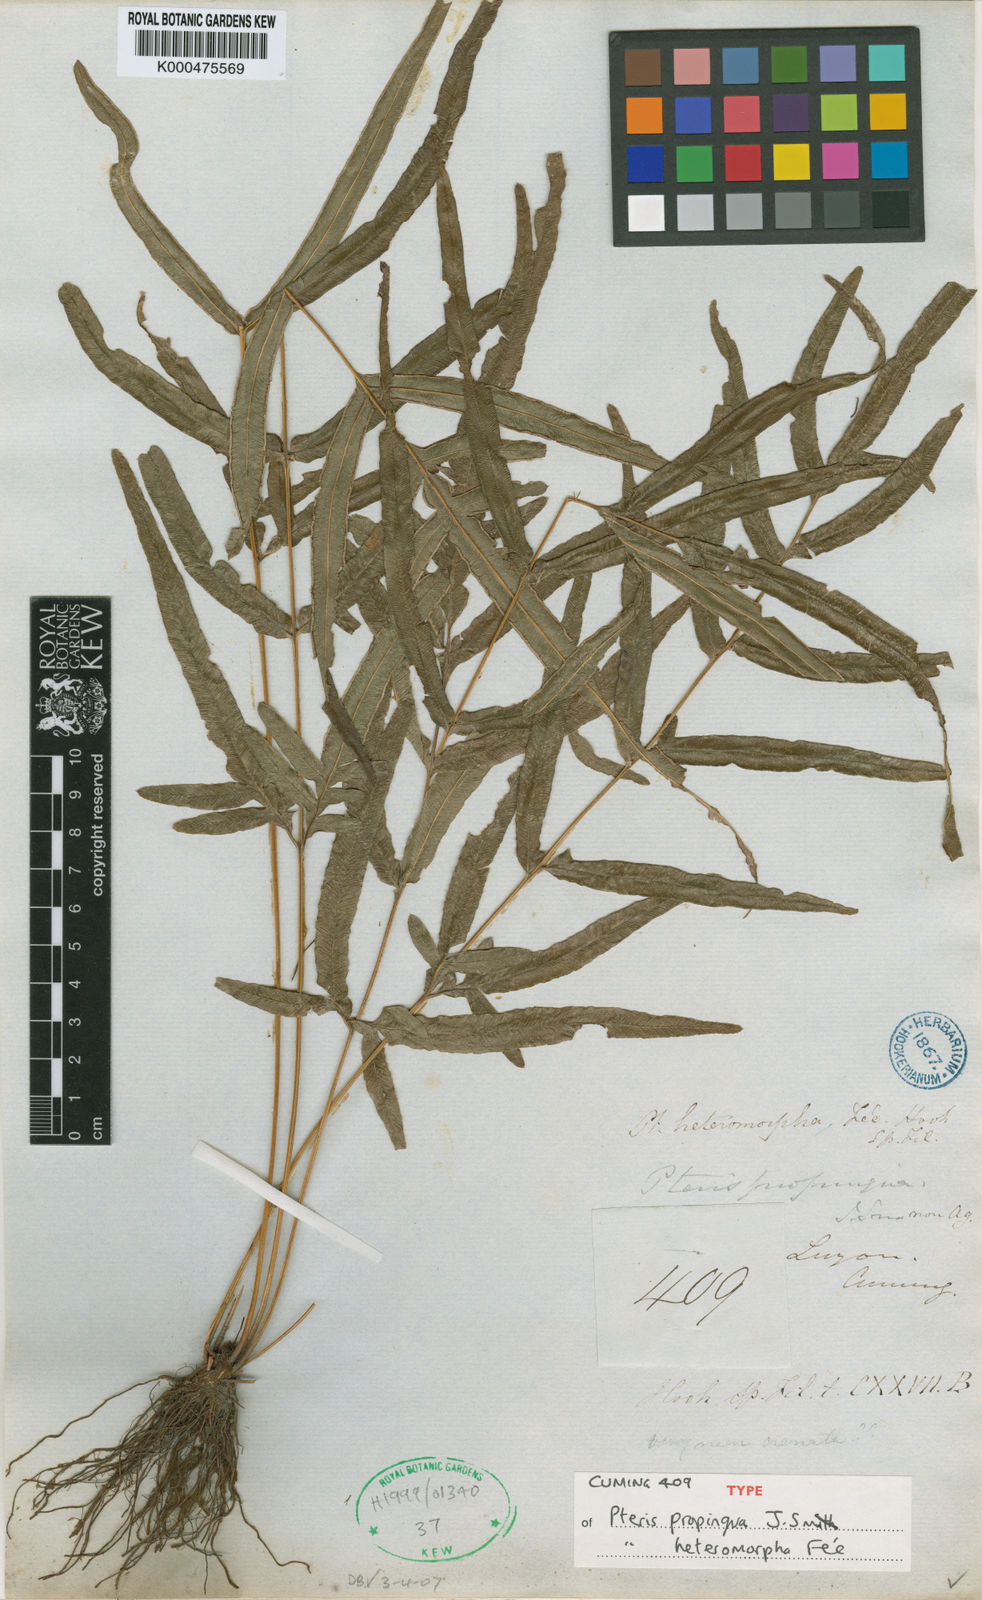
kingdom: Plantae
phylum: Tracheophyta
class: Polypodiopsida
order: Polypodiales
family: Pteridaceae
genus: Pteris
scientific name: Pteris
